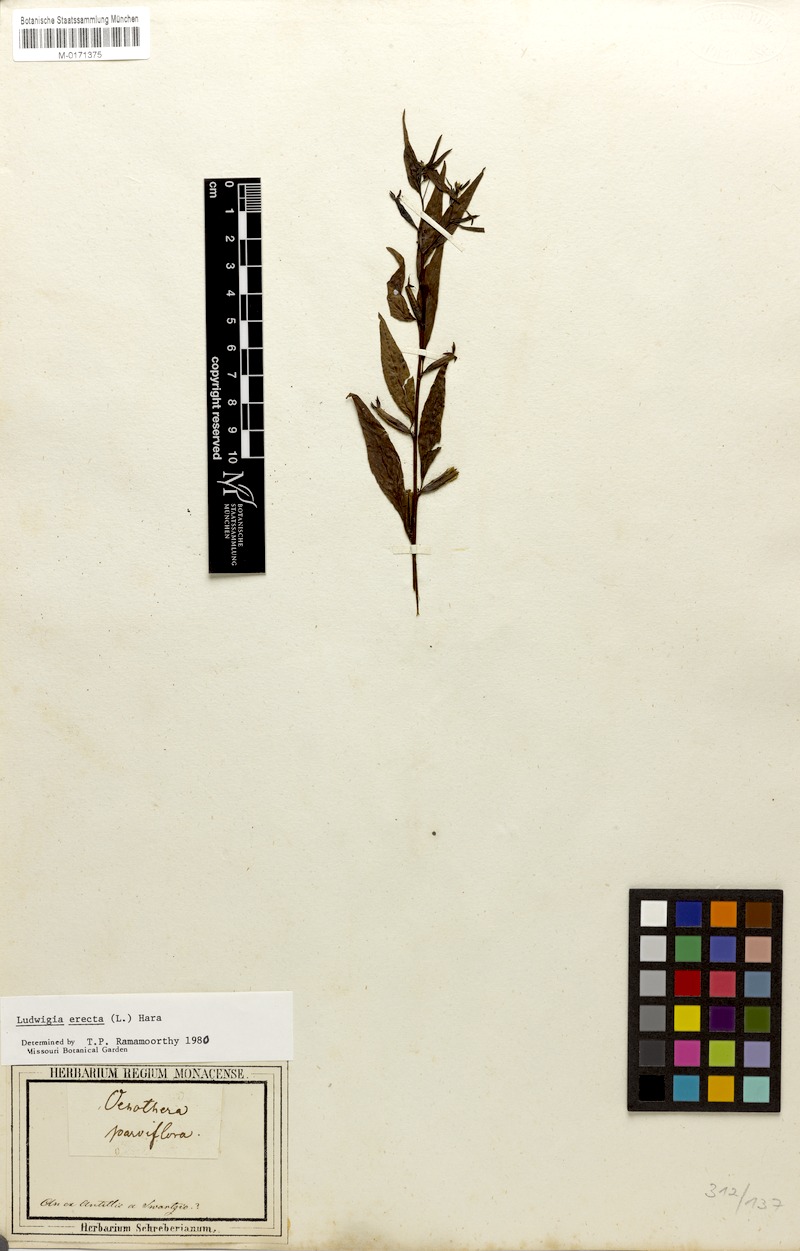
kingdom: Plantae
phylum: Tracheophyta
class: Magnoliopsida
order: Myrtales
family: Onagraceae
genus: Ludwigia
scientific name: Ludwigia erecta
